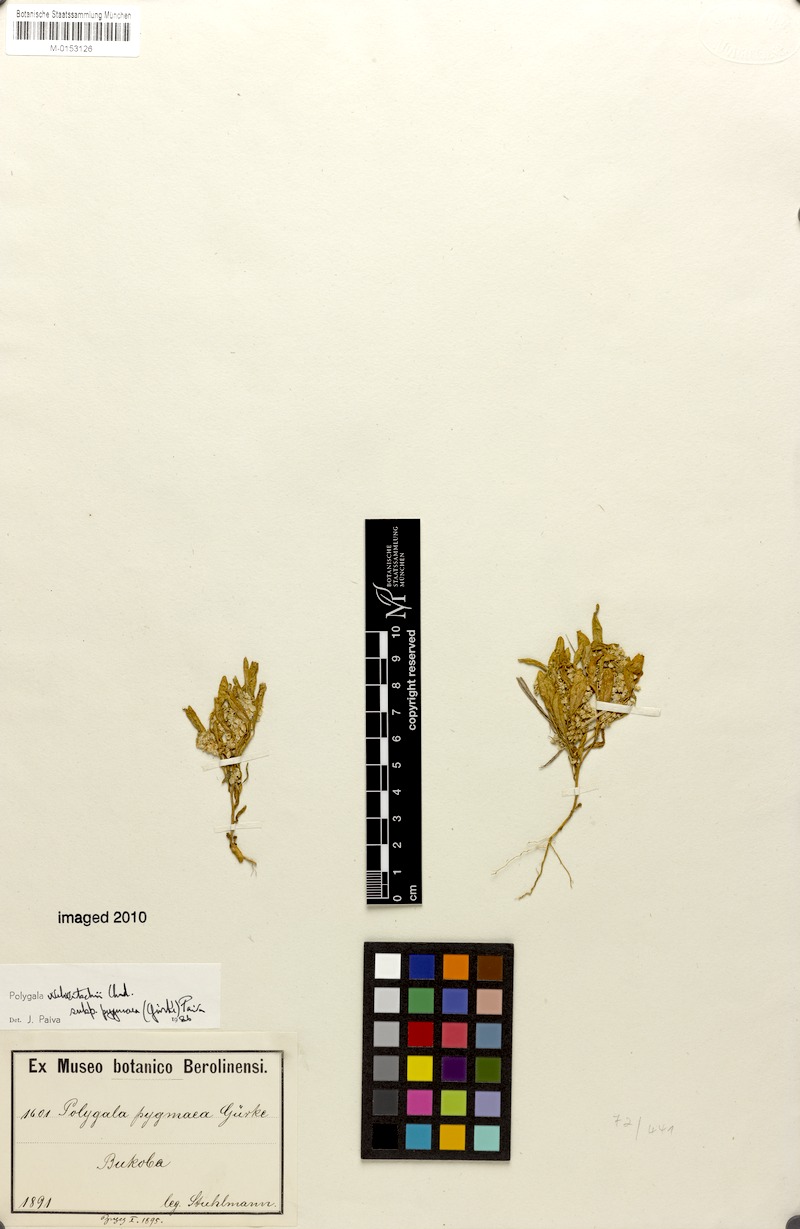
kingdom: Plantae
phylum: Tracheophyta
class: Magnoliopsida
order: Fabales
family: Polygalaceae
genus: Polygala
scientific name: Polygala welwitschii
